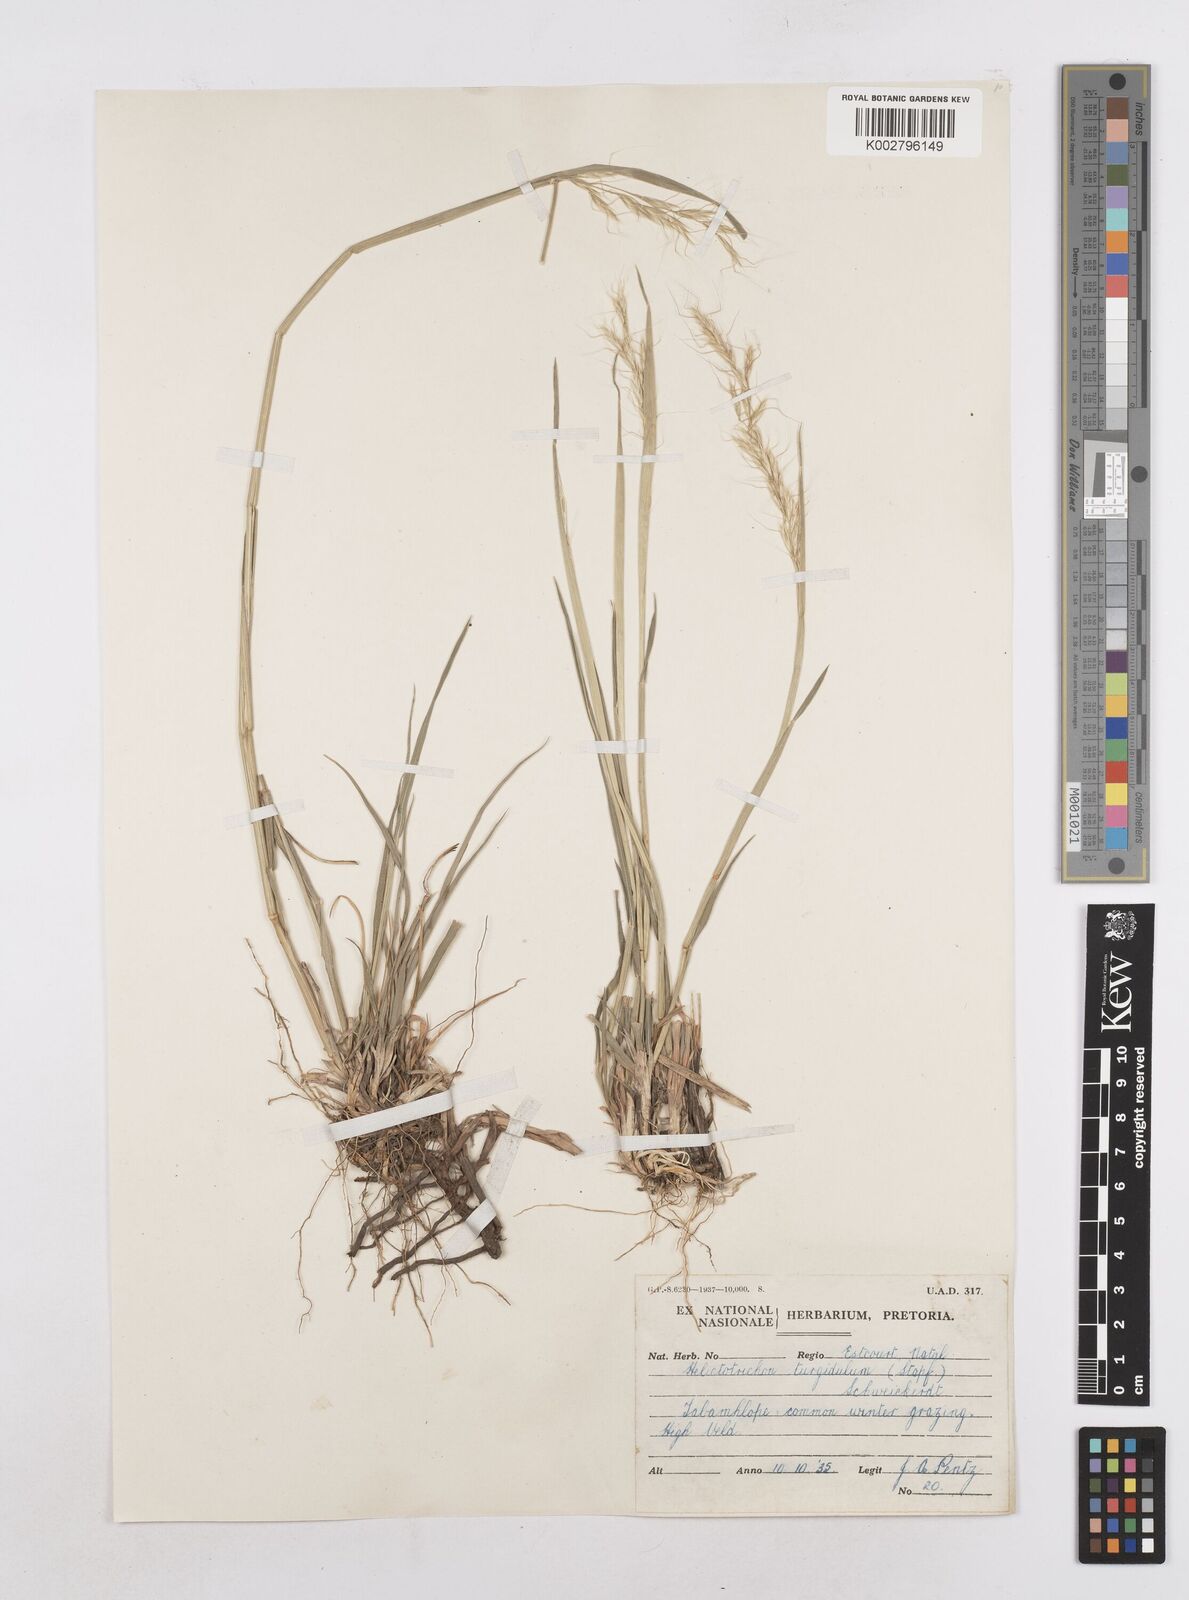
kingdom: Plantae
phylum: Tracheophyta
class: Liliopsida
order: Poales
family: Poaceae
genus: Trisetopsis
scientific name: Trisetopsis imberbis
